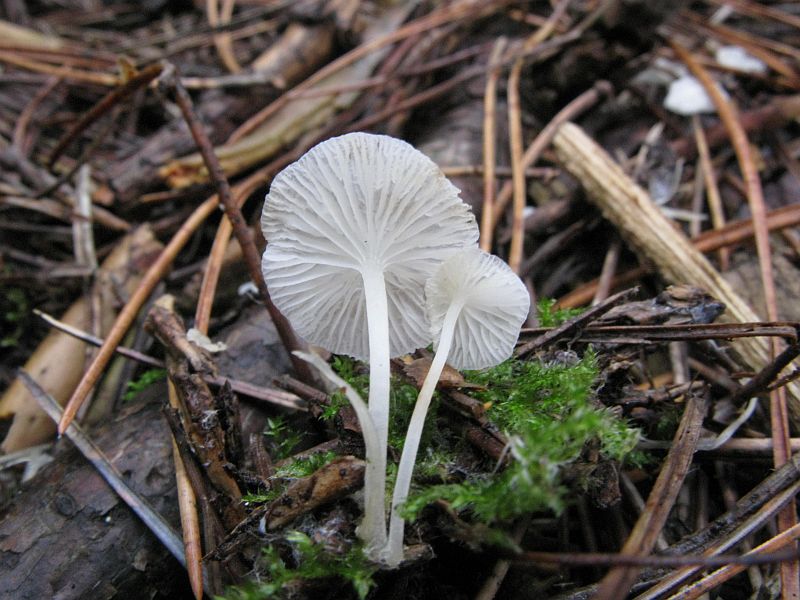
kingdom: Fungi
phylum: Basidiomycota
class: Agaricomycetes
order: Agaricales
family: Mycenaceae
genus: Hemimycena
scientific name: Hemimycena lactea
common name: mælkehvid huesvamp
